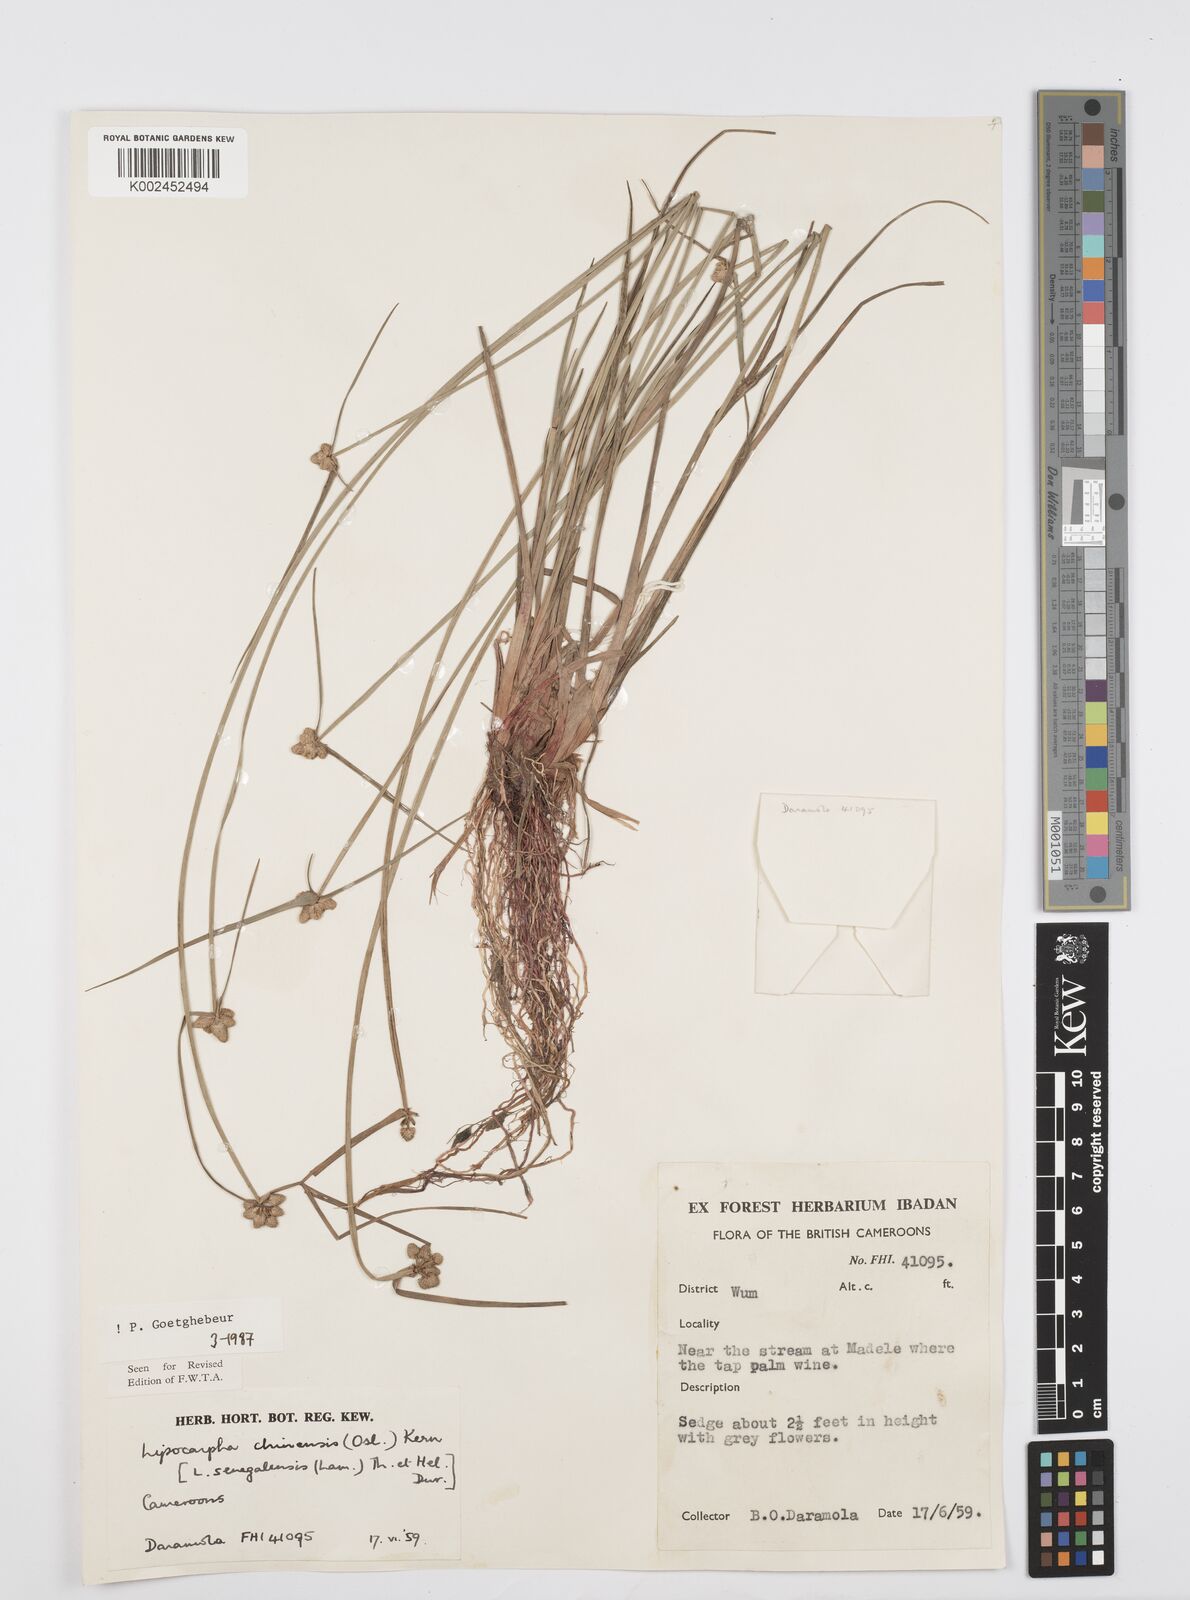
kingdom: Plantae
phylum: Tracheophyta
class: Liliopsida
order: Poales
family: Cyperaceae
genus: Cyperus
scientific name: Cyperus albescens
